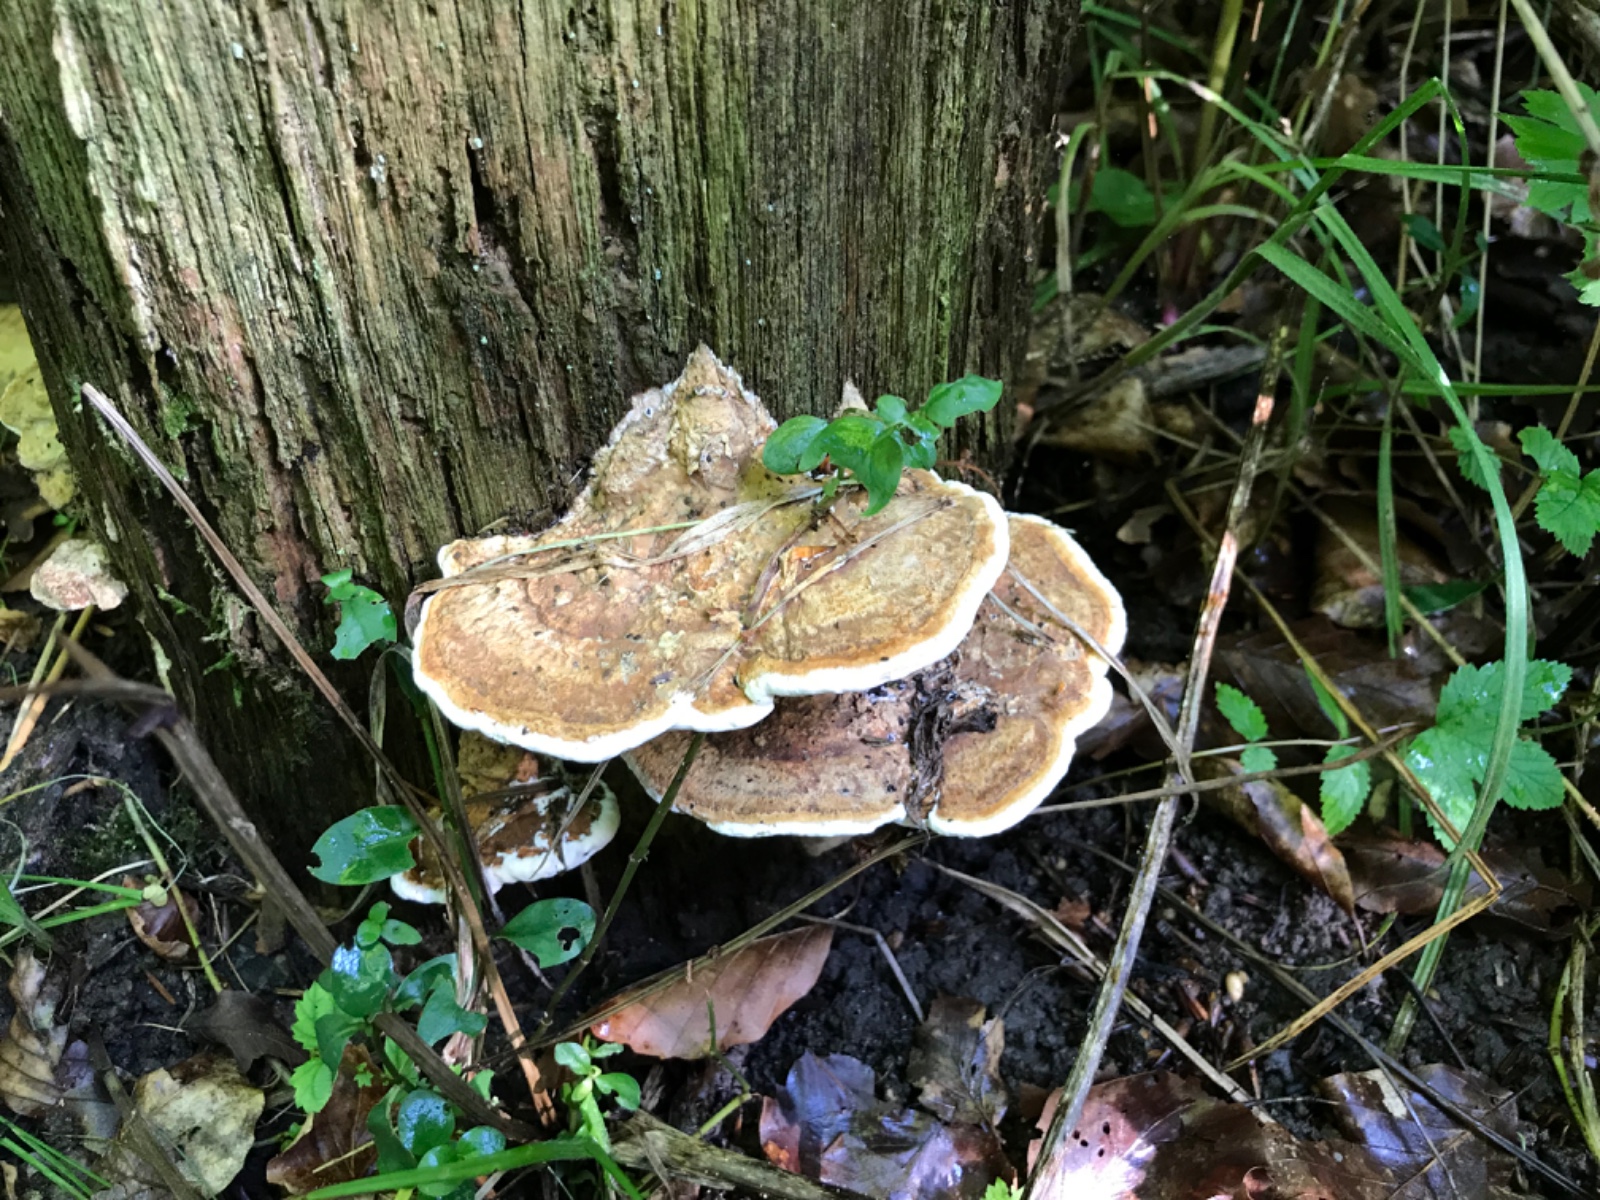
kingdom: Fungi
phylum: Basidiomycota
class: Agaricomycetes
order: Polyporales
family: Fomitopsidaceae
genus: Daedalea
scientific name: Daedalea quercina
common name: ege-labyrintsvamp
